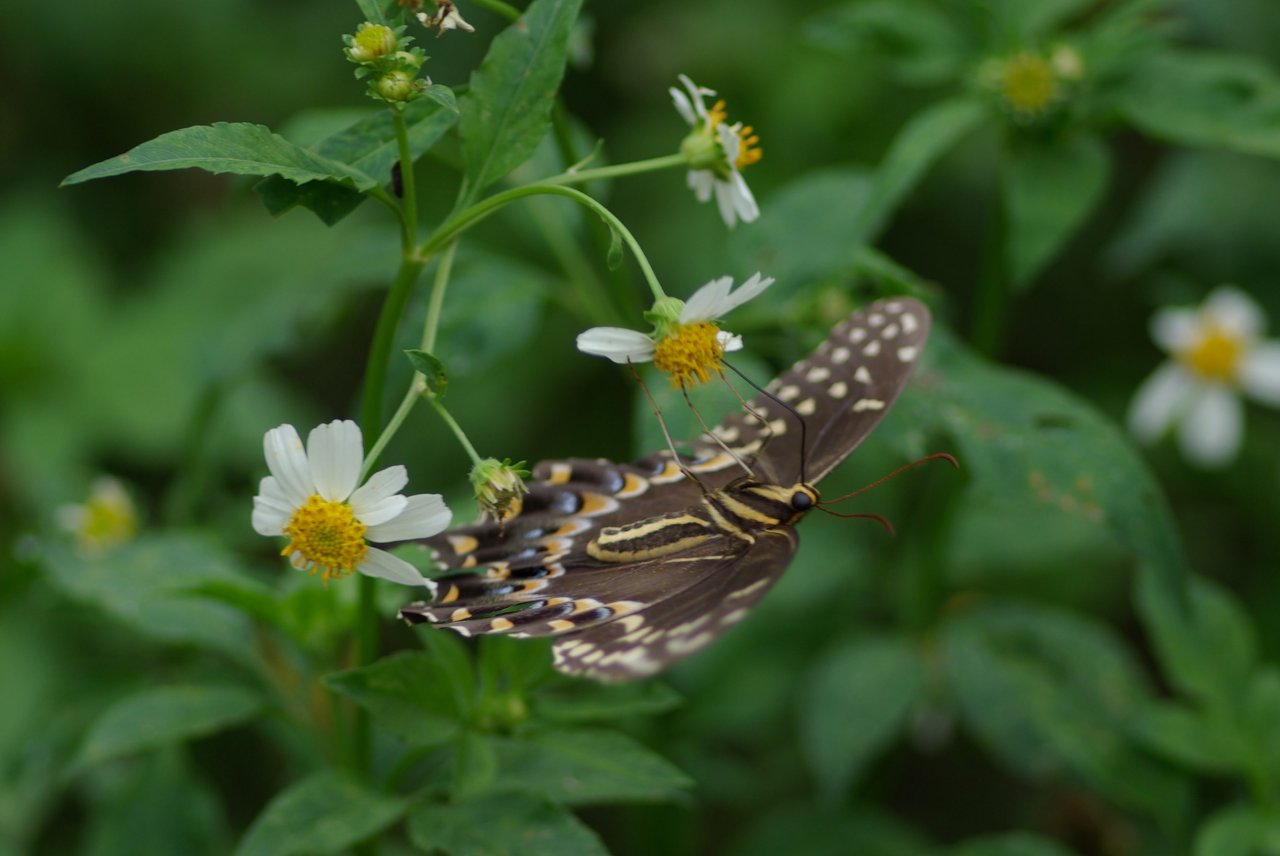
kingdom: Animalia
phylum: Arthropoda
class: Insecta
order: Lepidoptera
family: Papilionidae
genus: Pterourus
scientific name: Pterourus palamedes
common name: Palamedes Swallowtail
